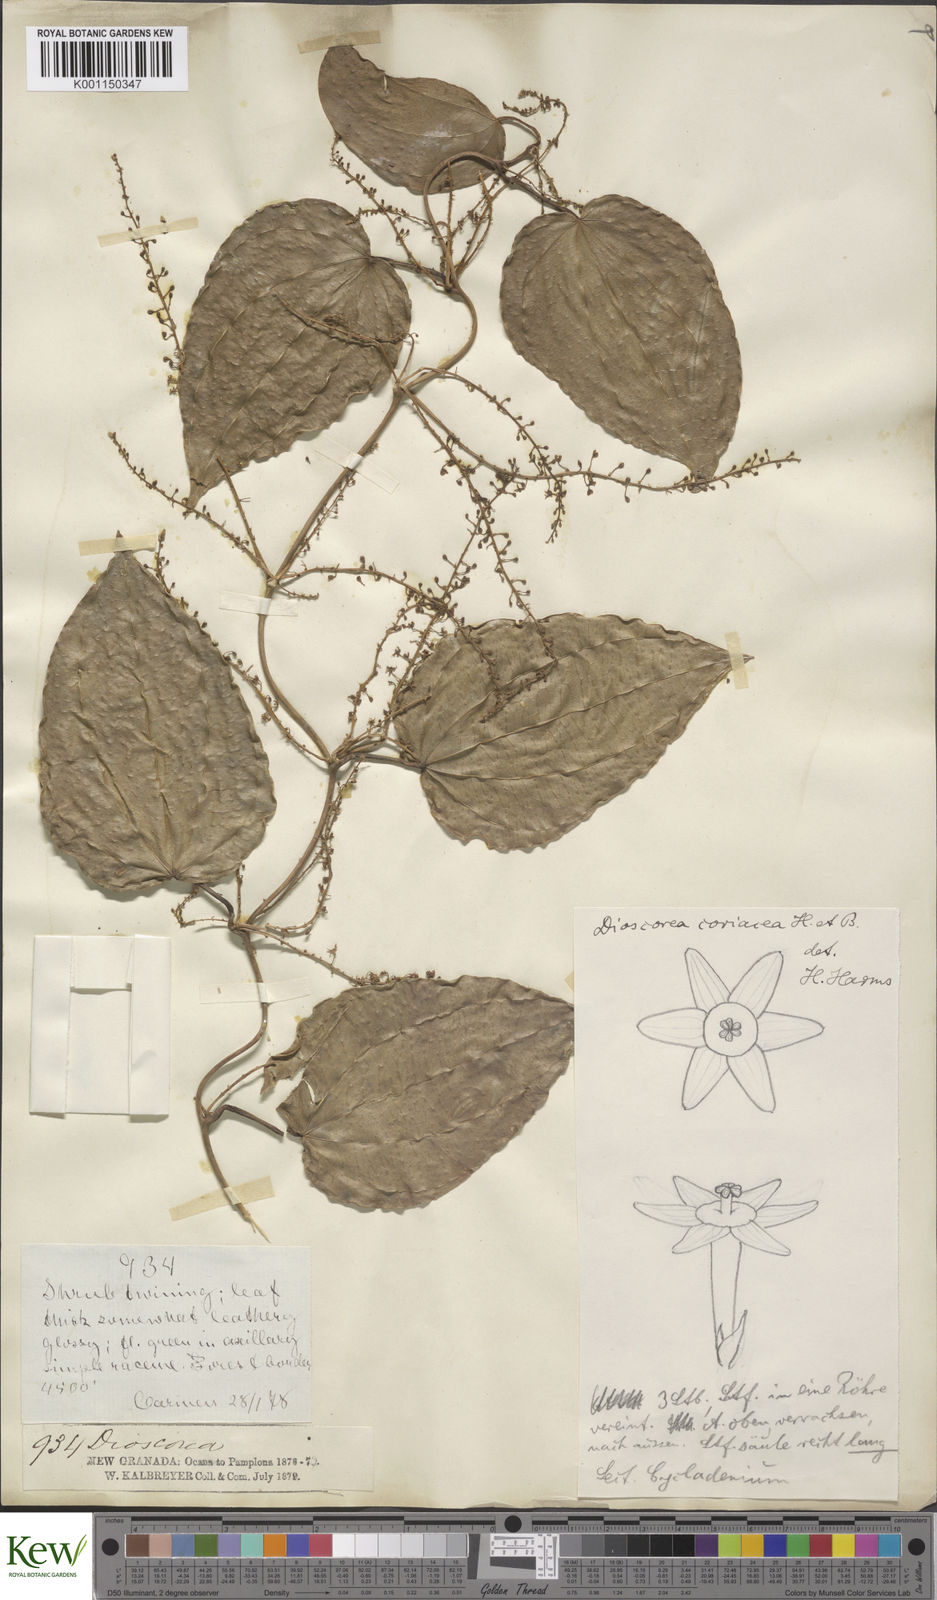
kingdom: Plantae
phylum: Tracheophyta
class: Liliopsida
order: Dioscoreales
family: Dioscoreaceae
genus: Dioscorea
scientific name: Dioscorea coriacea
